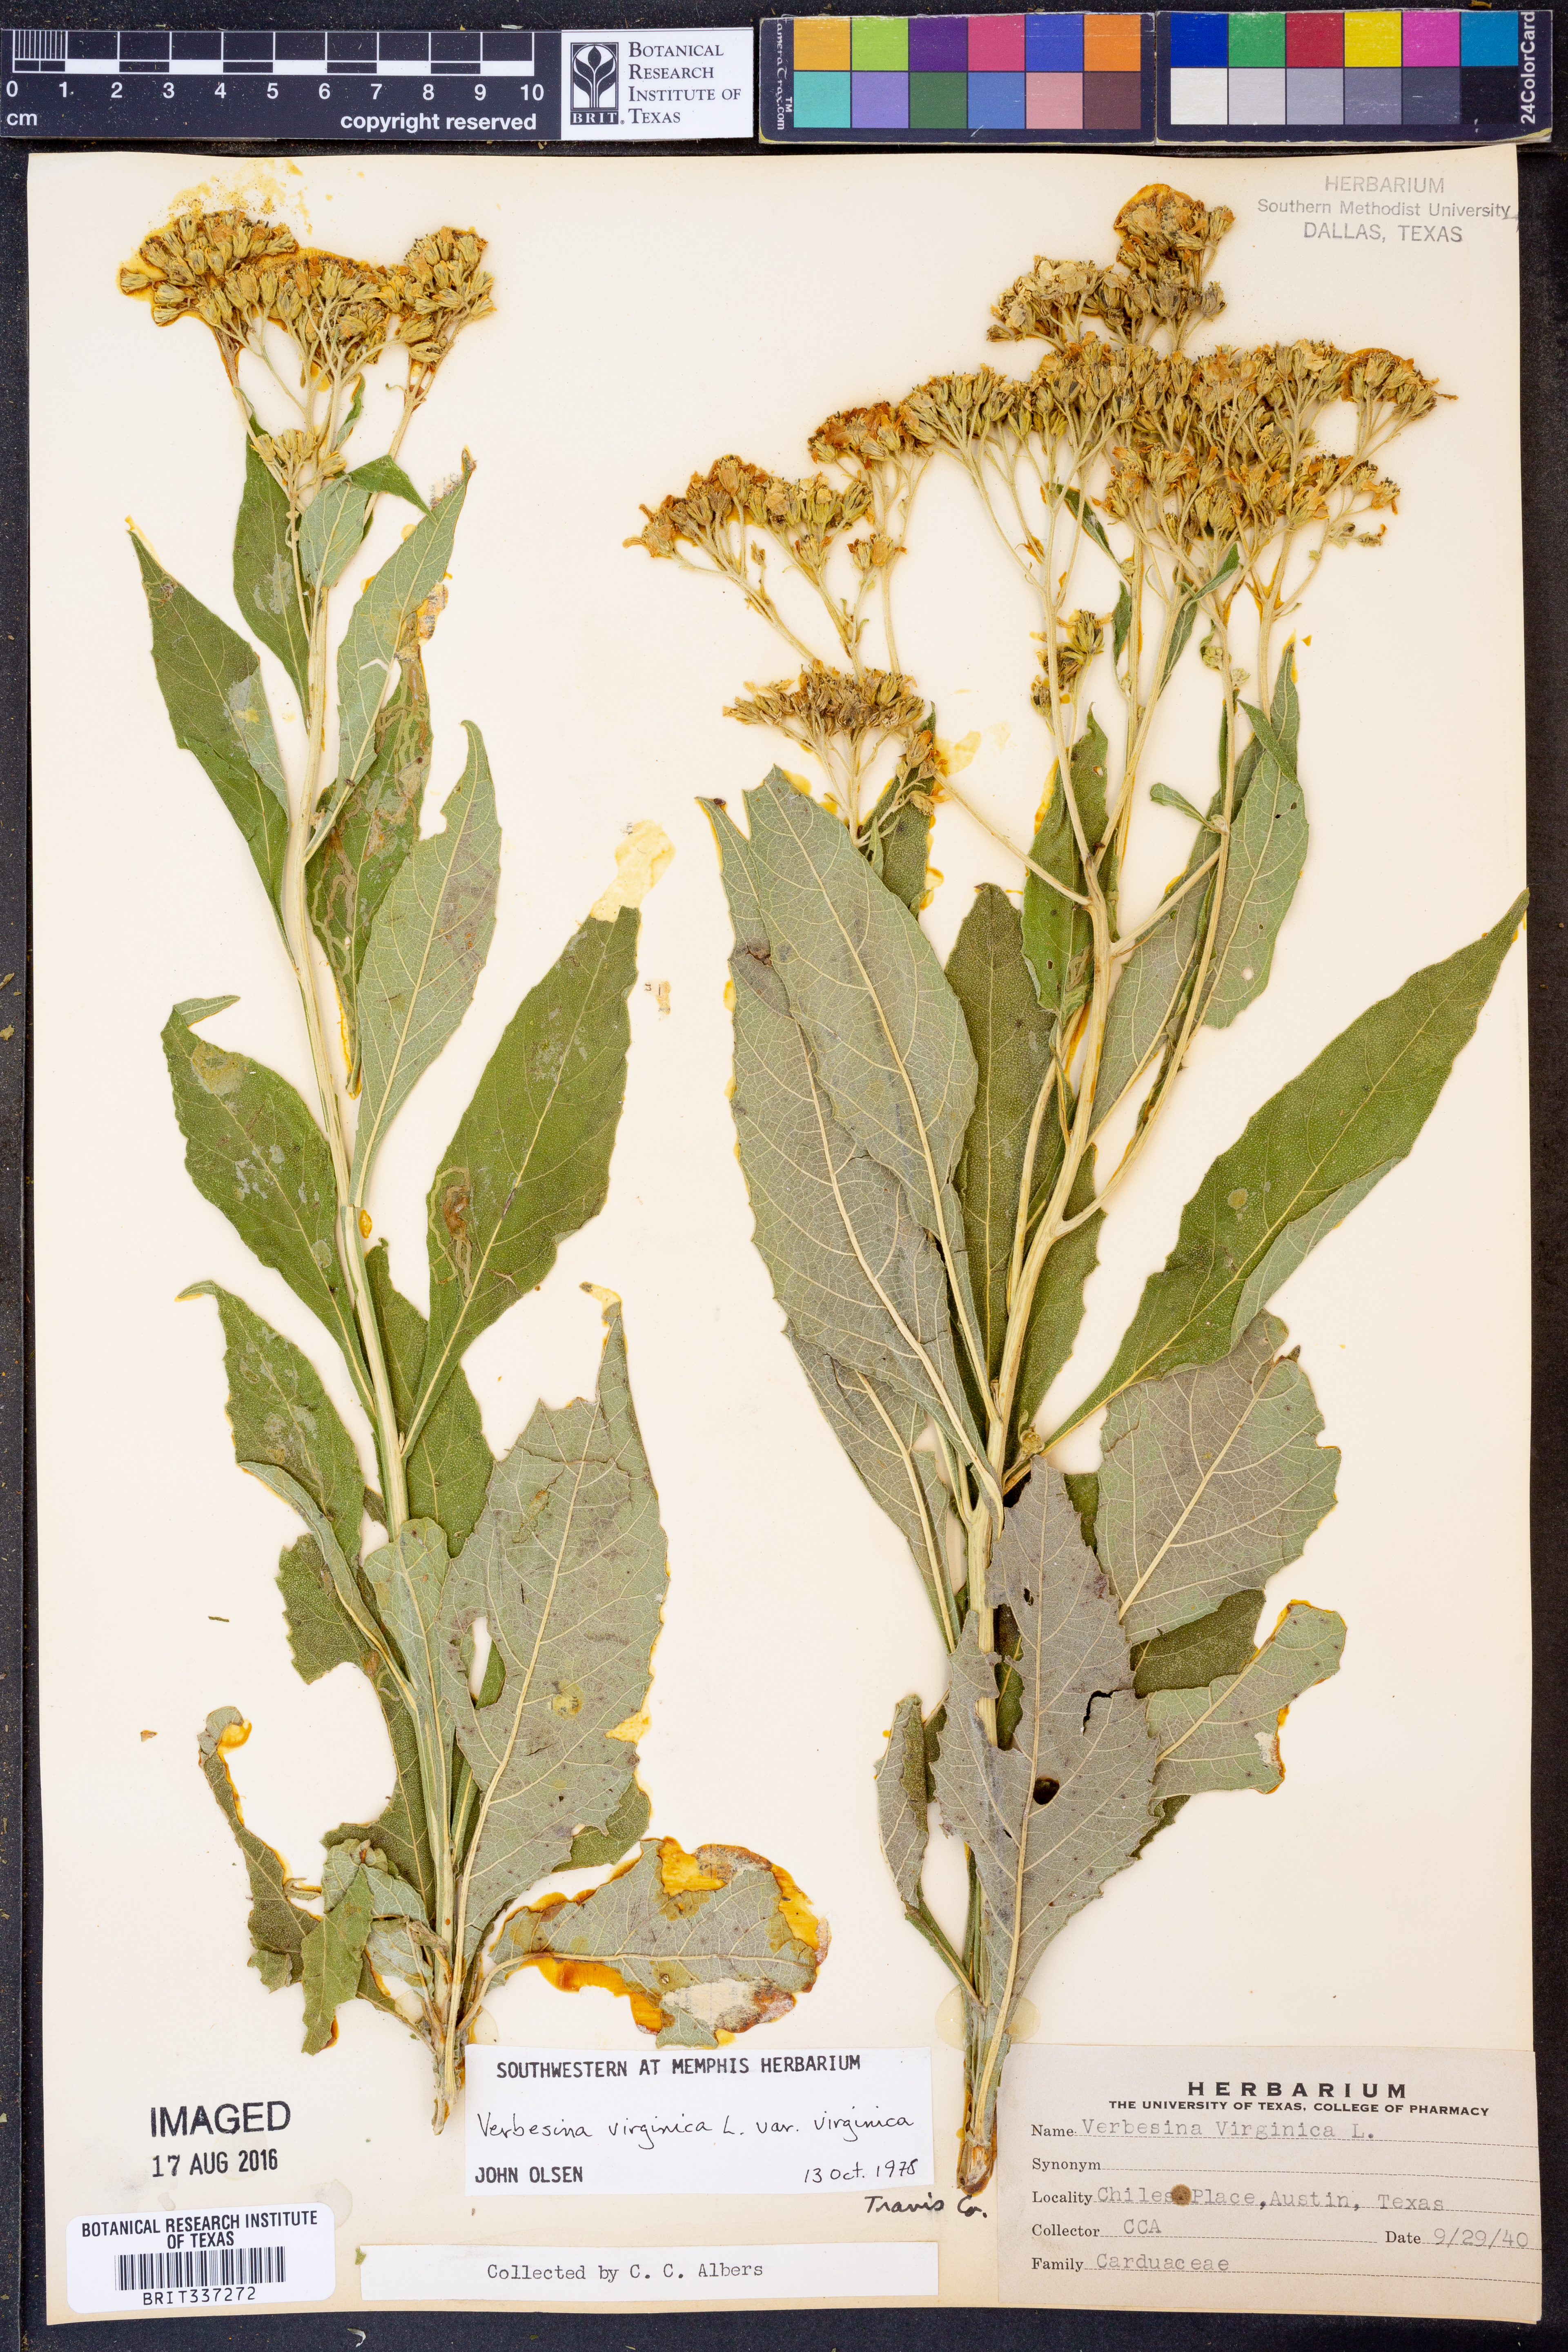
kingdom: Plantae
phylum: Tracheophyta
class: Magnoliopsida
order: Asterales
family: Asteraceae
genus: Verbesina
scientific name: Verbesina virginica
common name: Frostweed
